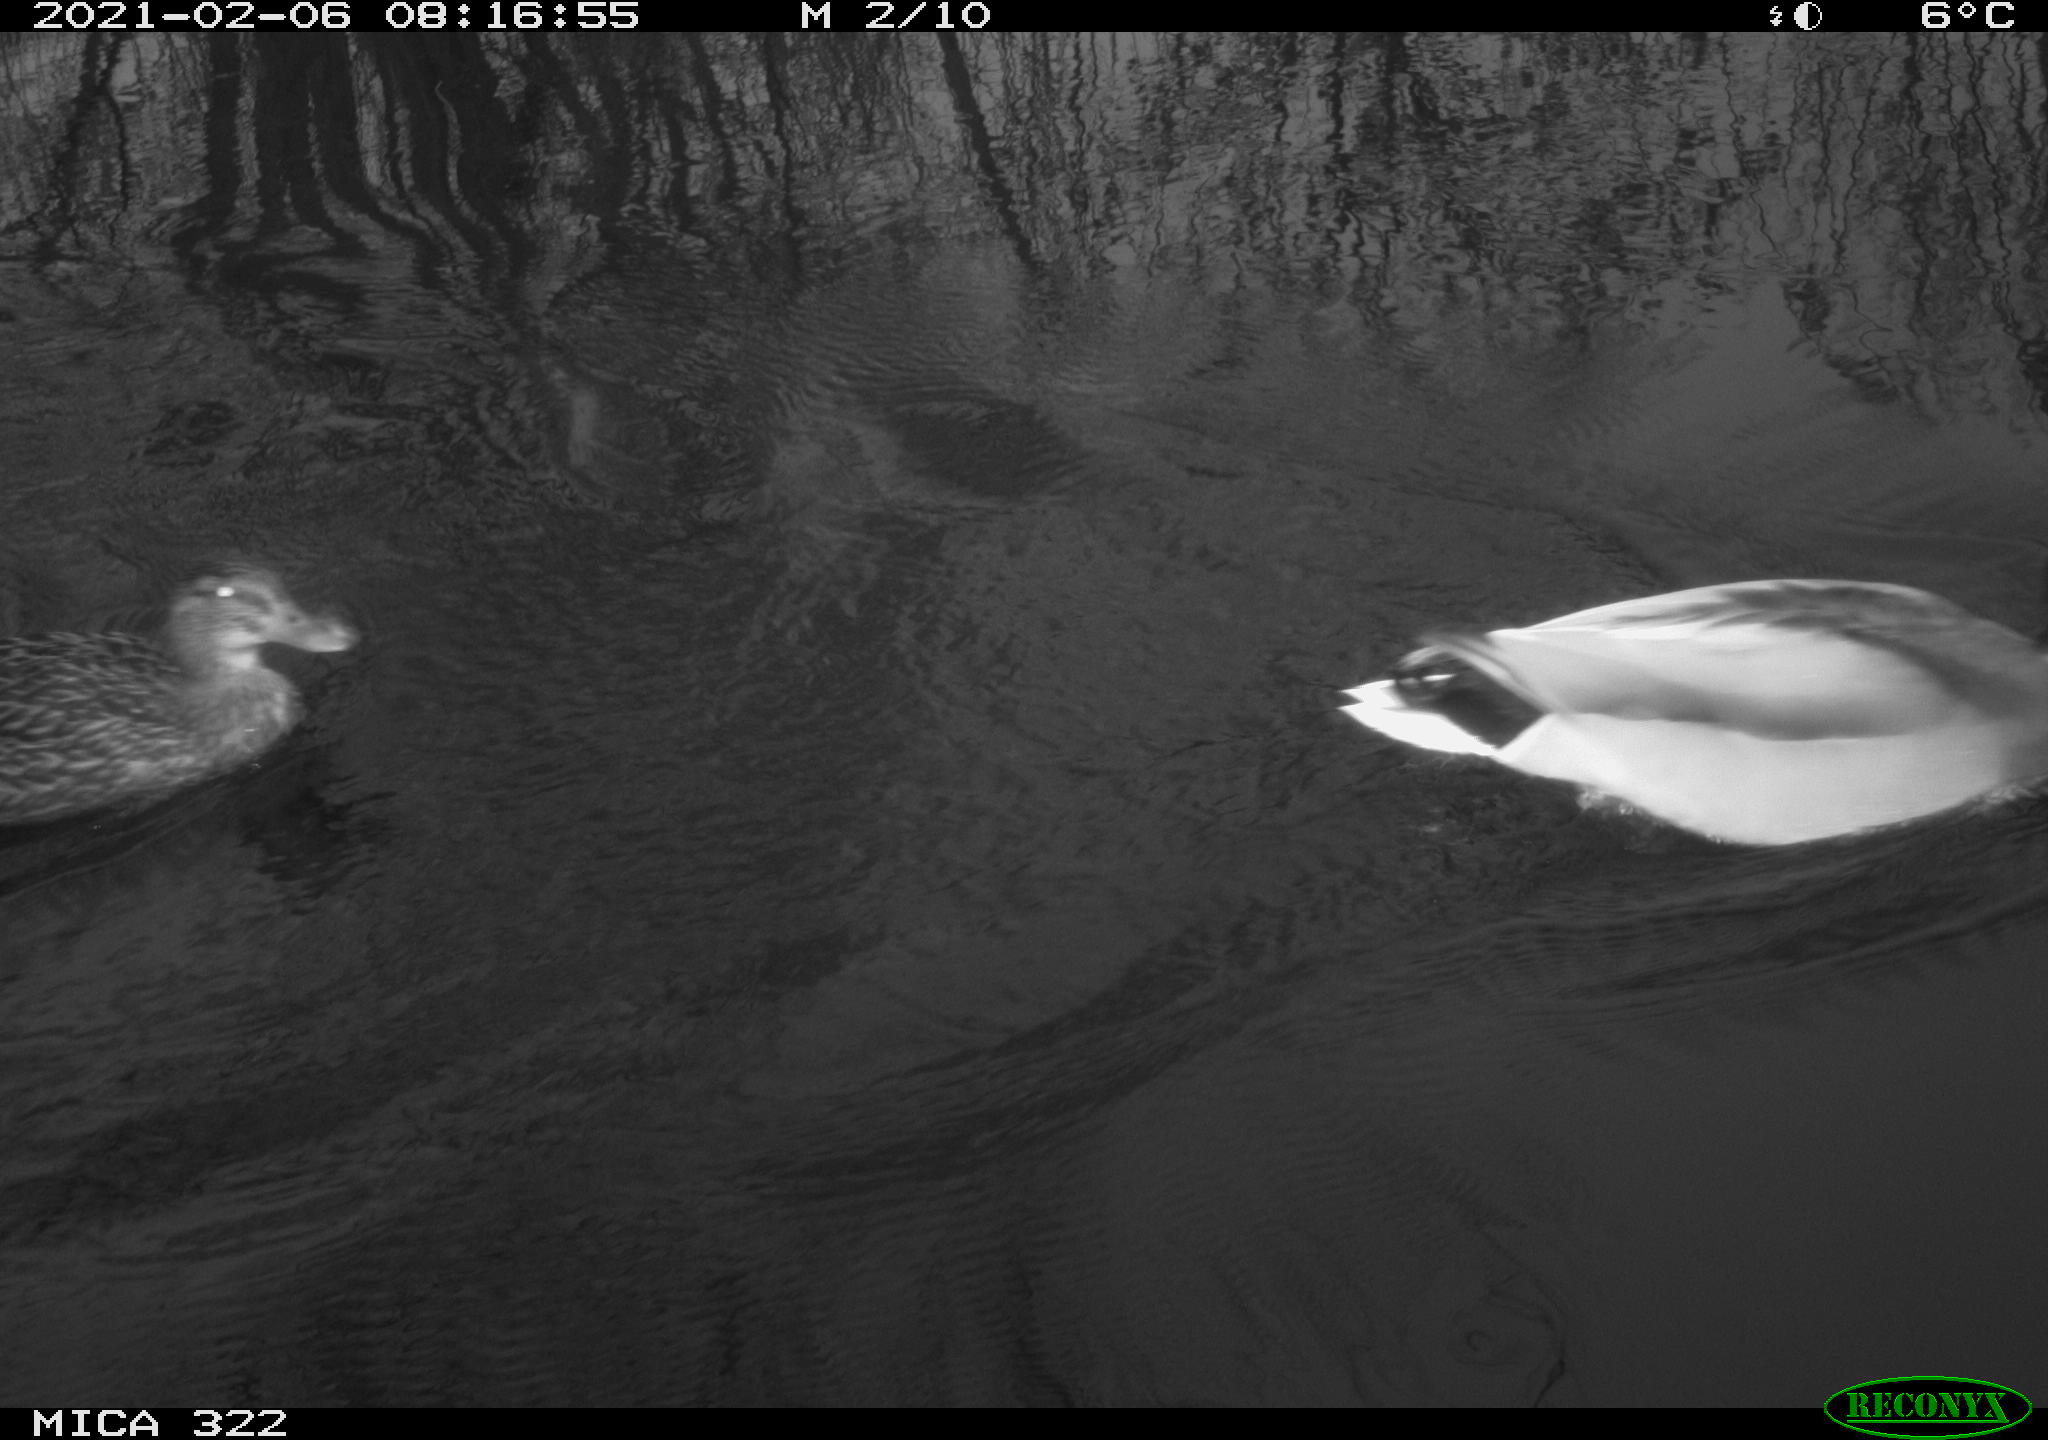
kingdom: Animalia
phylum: Chordata
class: Aves
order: Anseriformes
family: Anatidae
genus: Anas
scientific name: Anas platyrhynchos
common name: Mallard
